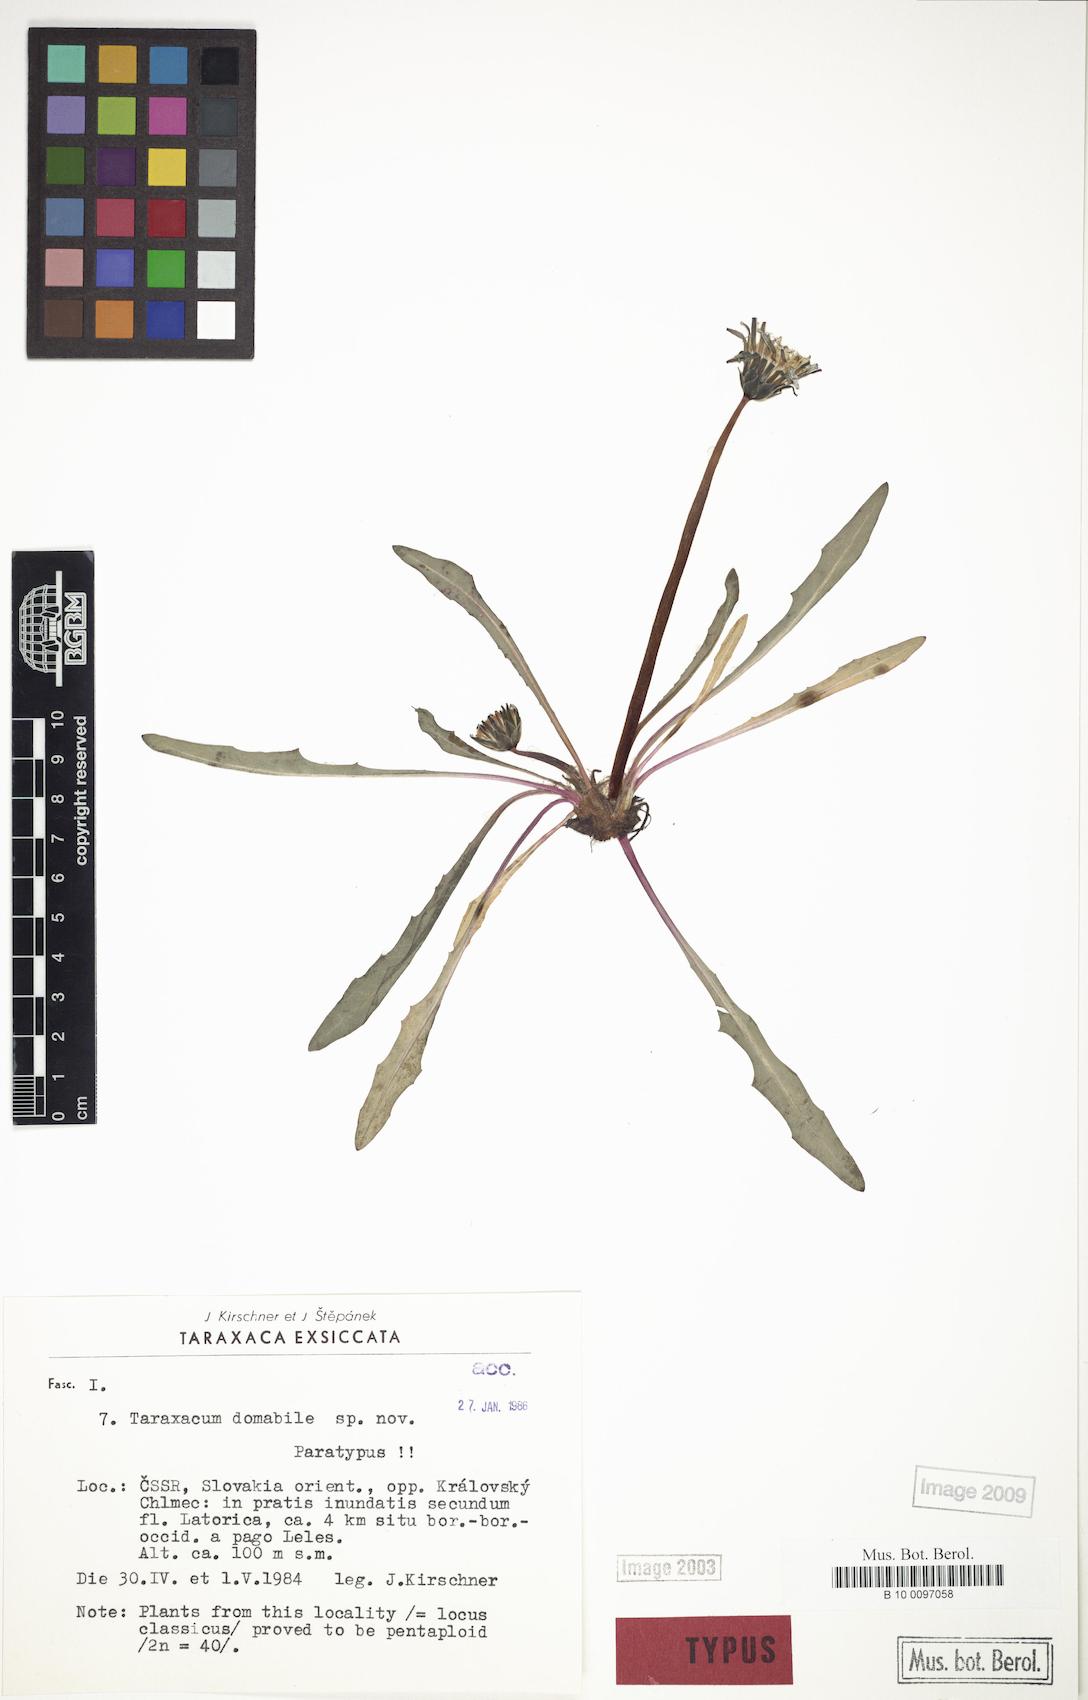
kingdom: Plantae
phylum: Tracheophyta
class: Magnoliopsida
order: Asterales
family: Asteraceae
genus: Taraxacum
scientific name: Taraxacum domabile
